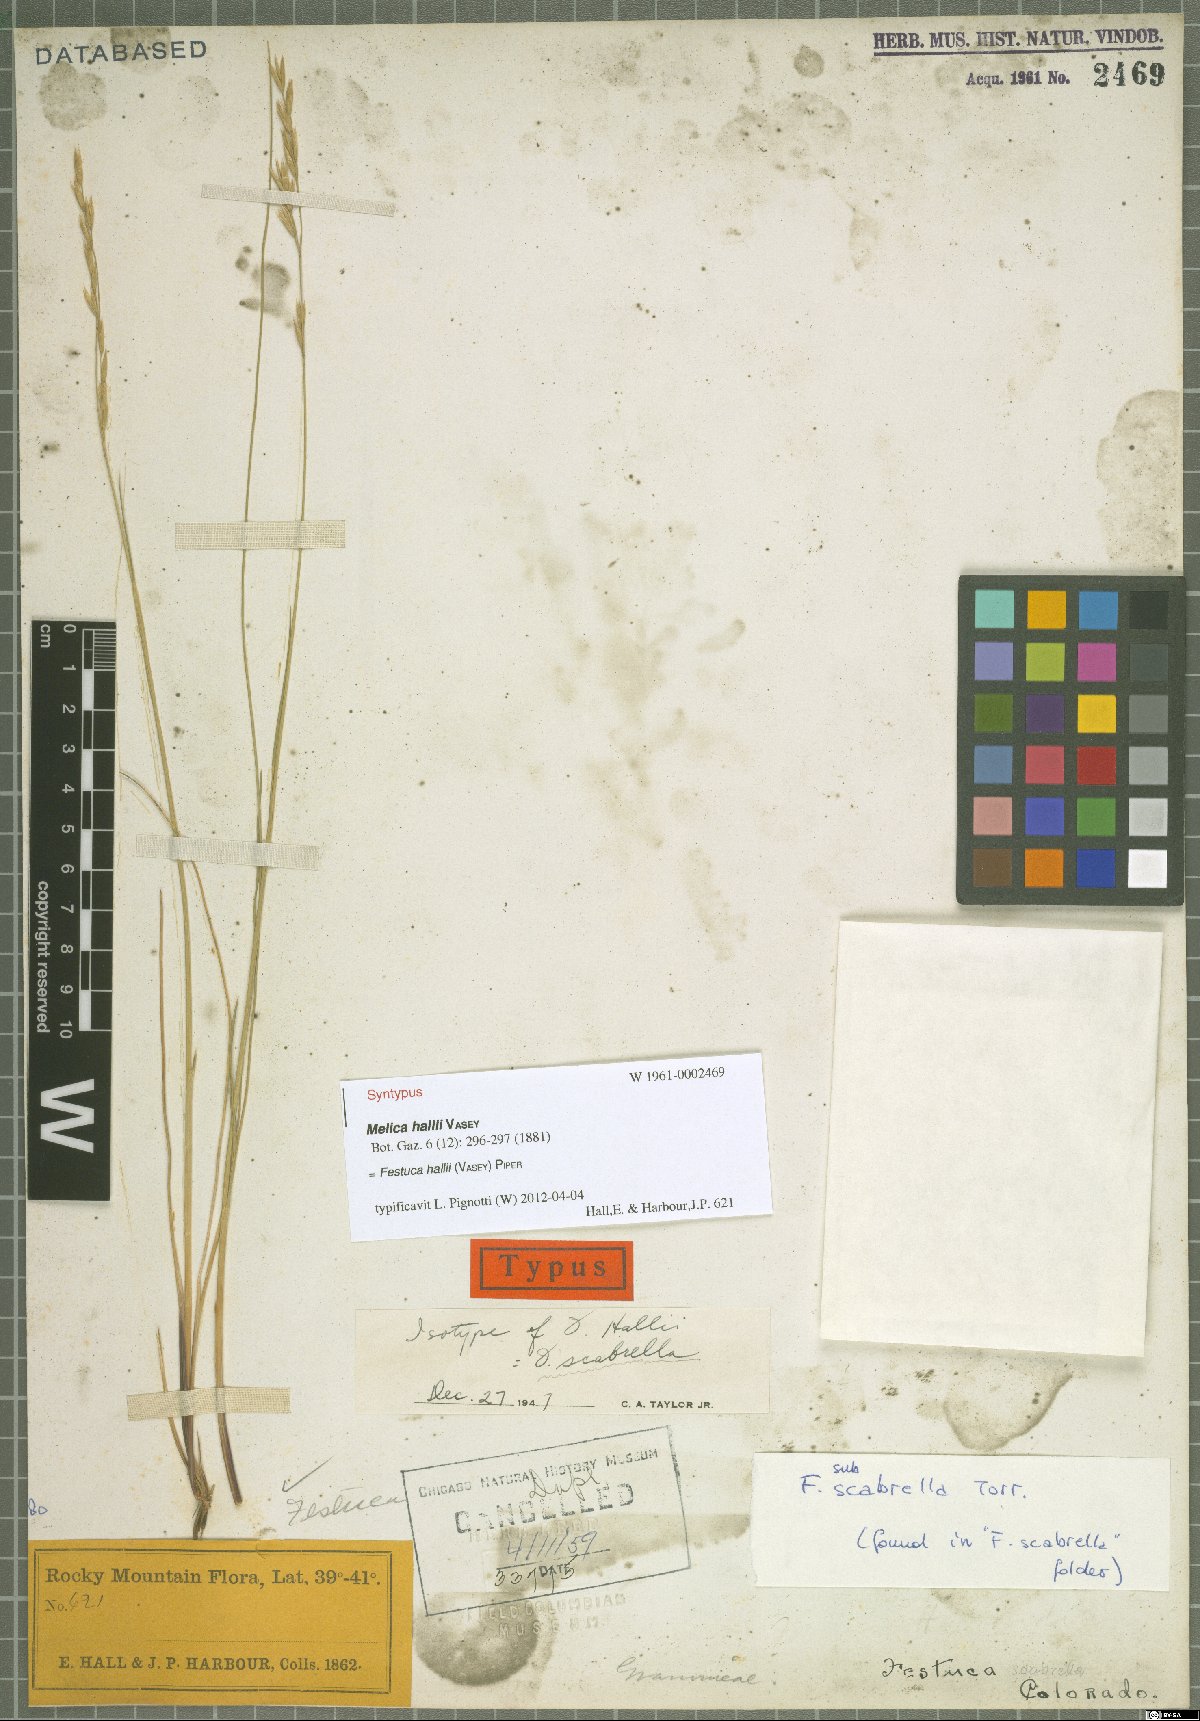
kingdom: Plantae
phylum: Tracheophyta
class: Liliopsida
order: Poales
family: Poaceae
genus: Festuca
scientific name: Festuca hallii
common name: Hall's fescue
